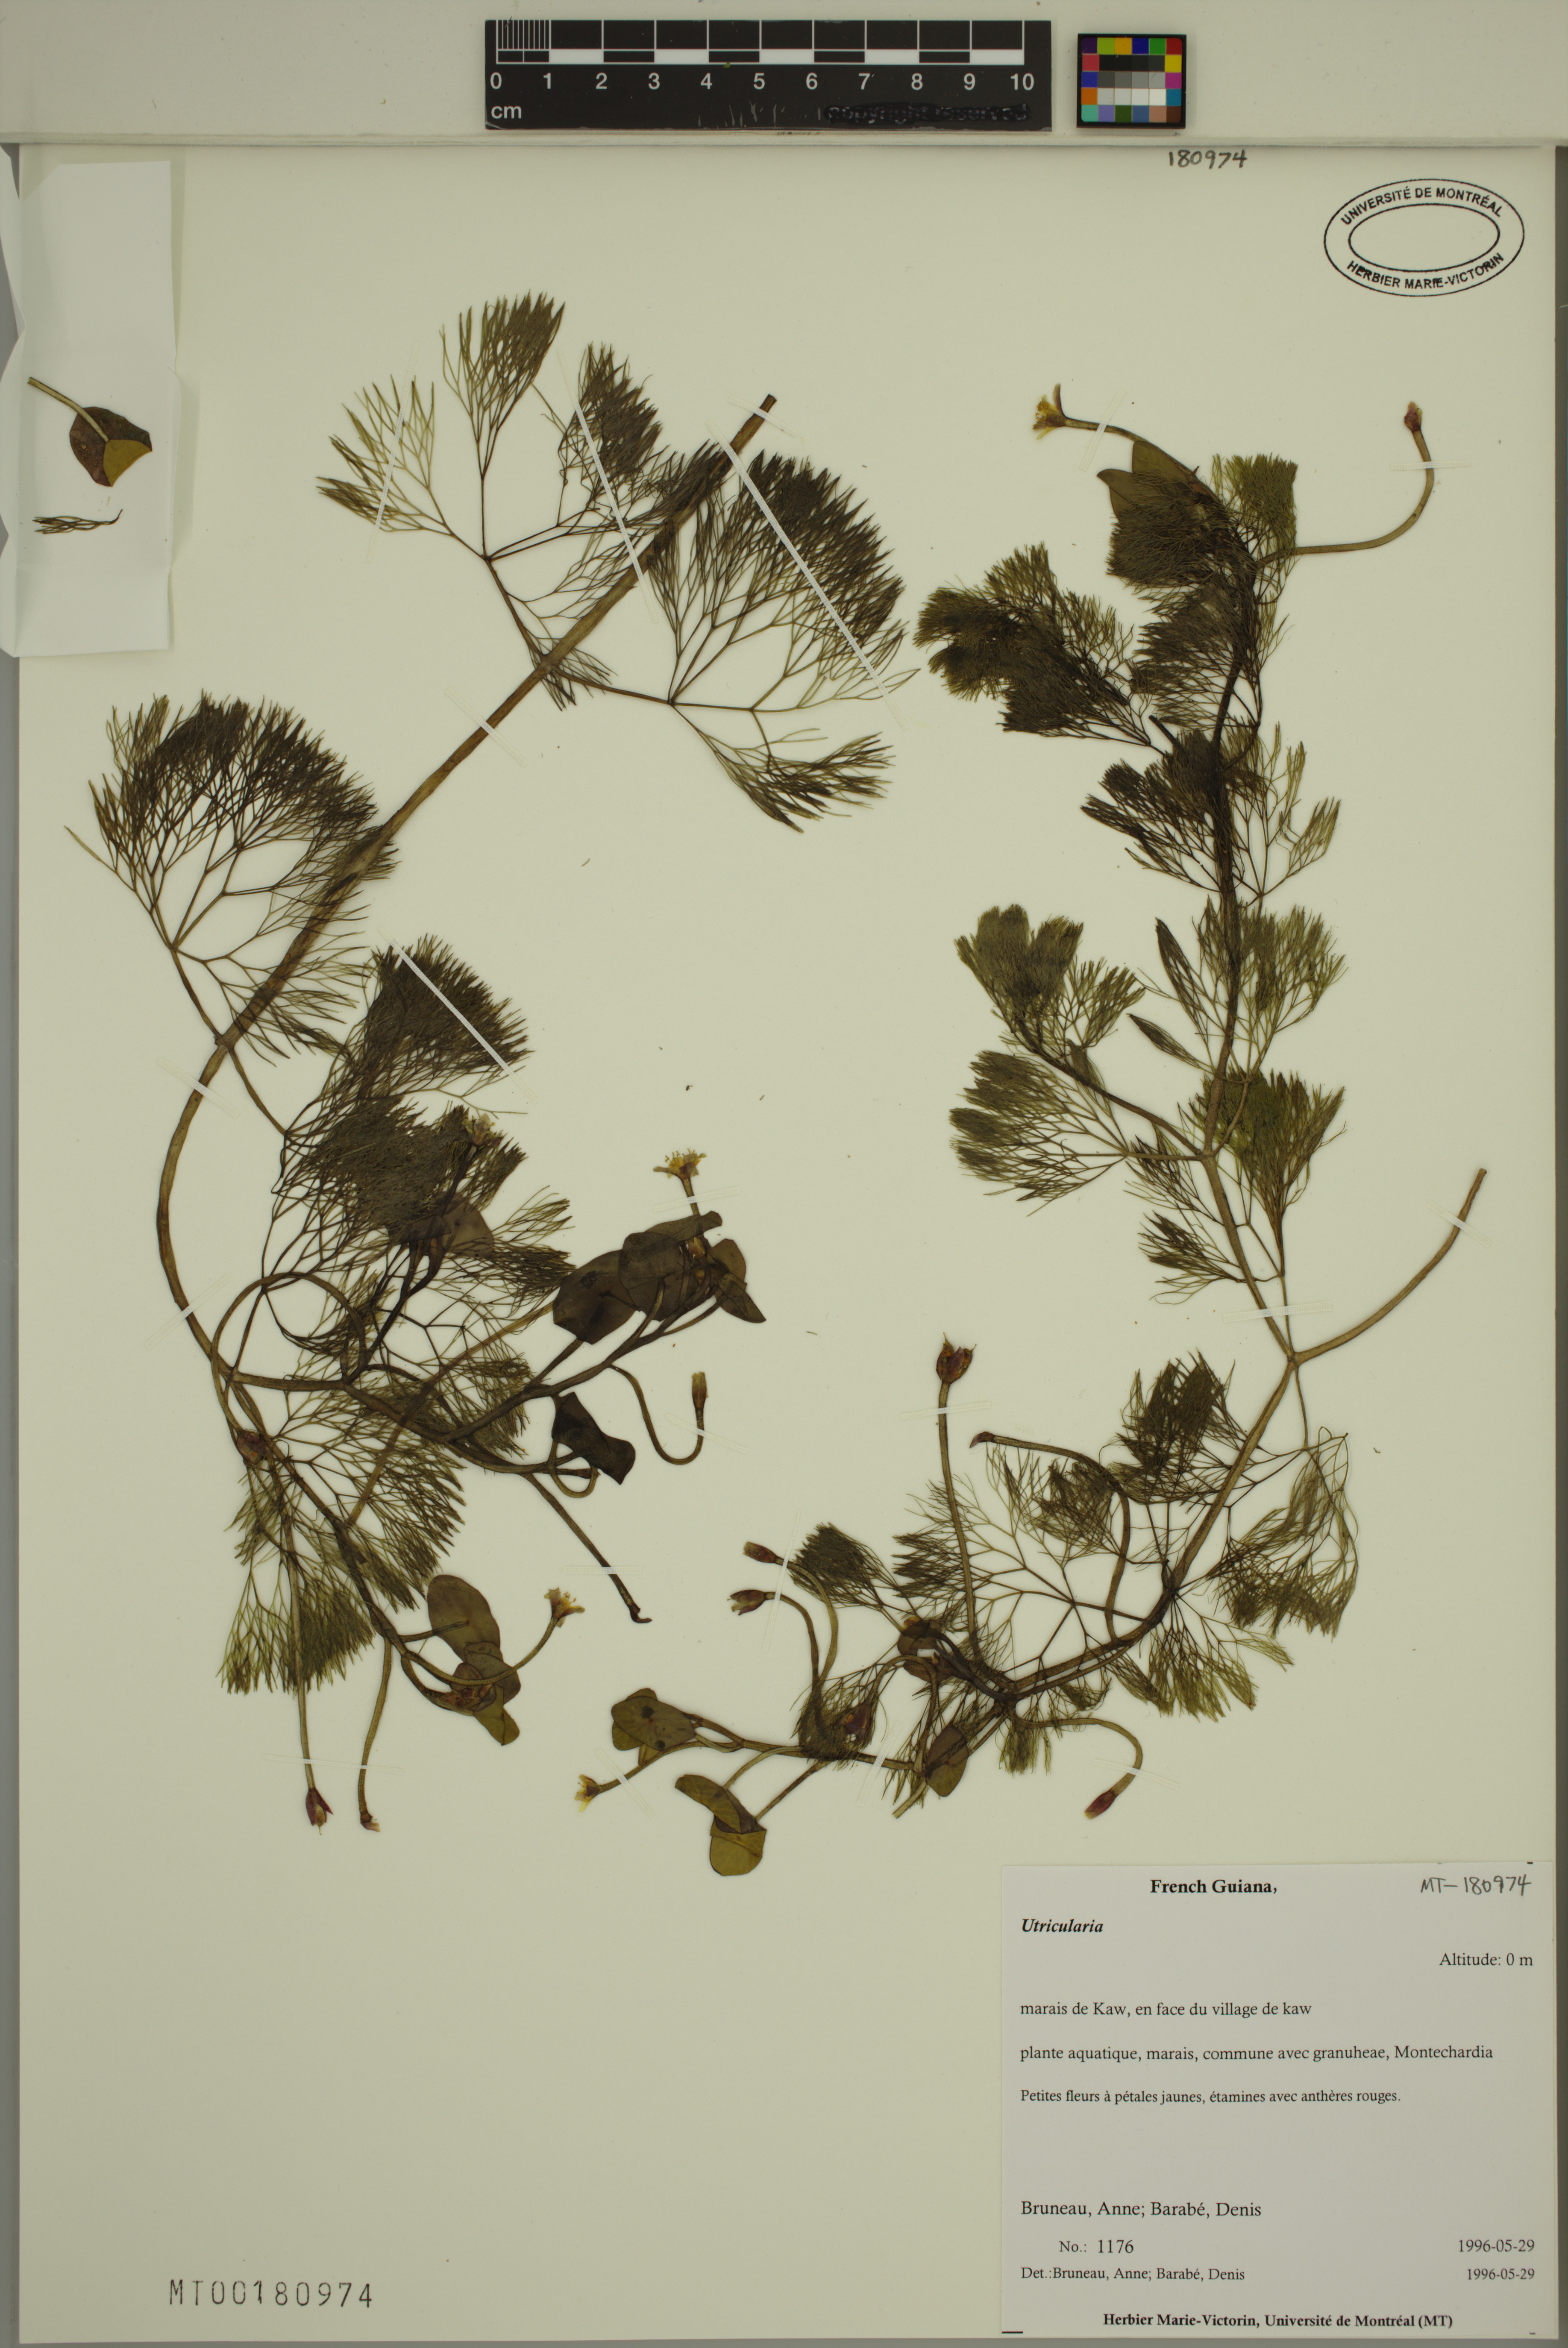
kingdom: Plantae
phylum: Tracheophyta
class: Magnoliopsida
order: Lamiales
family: Lentibulariaceae
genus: Utricularia
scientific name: Utricularia
